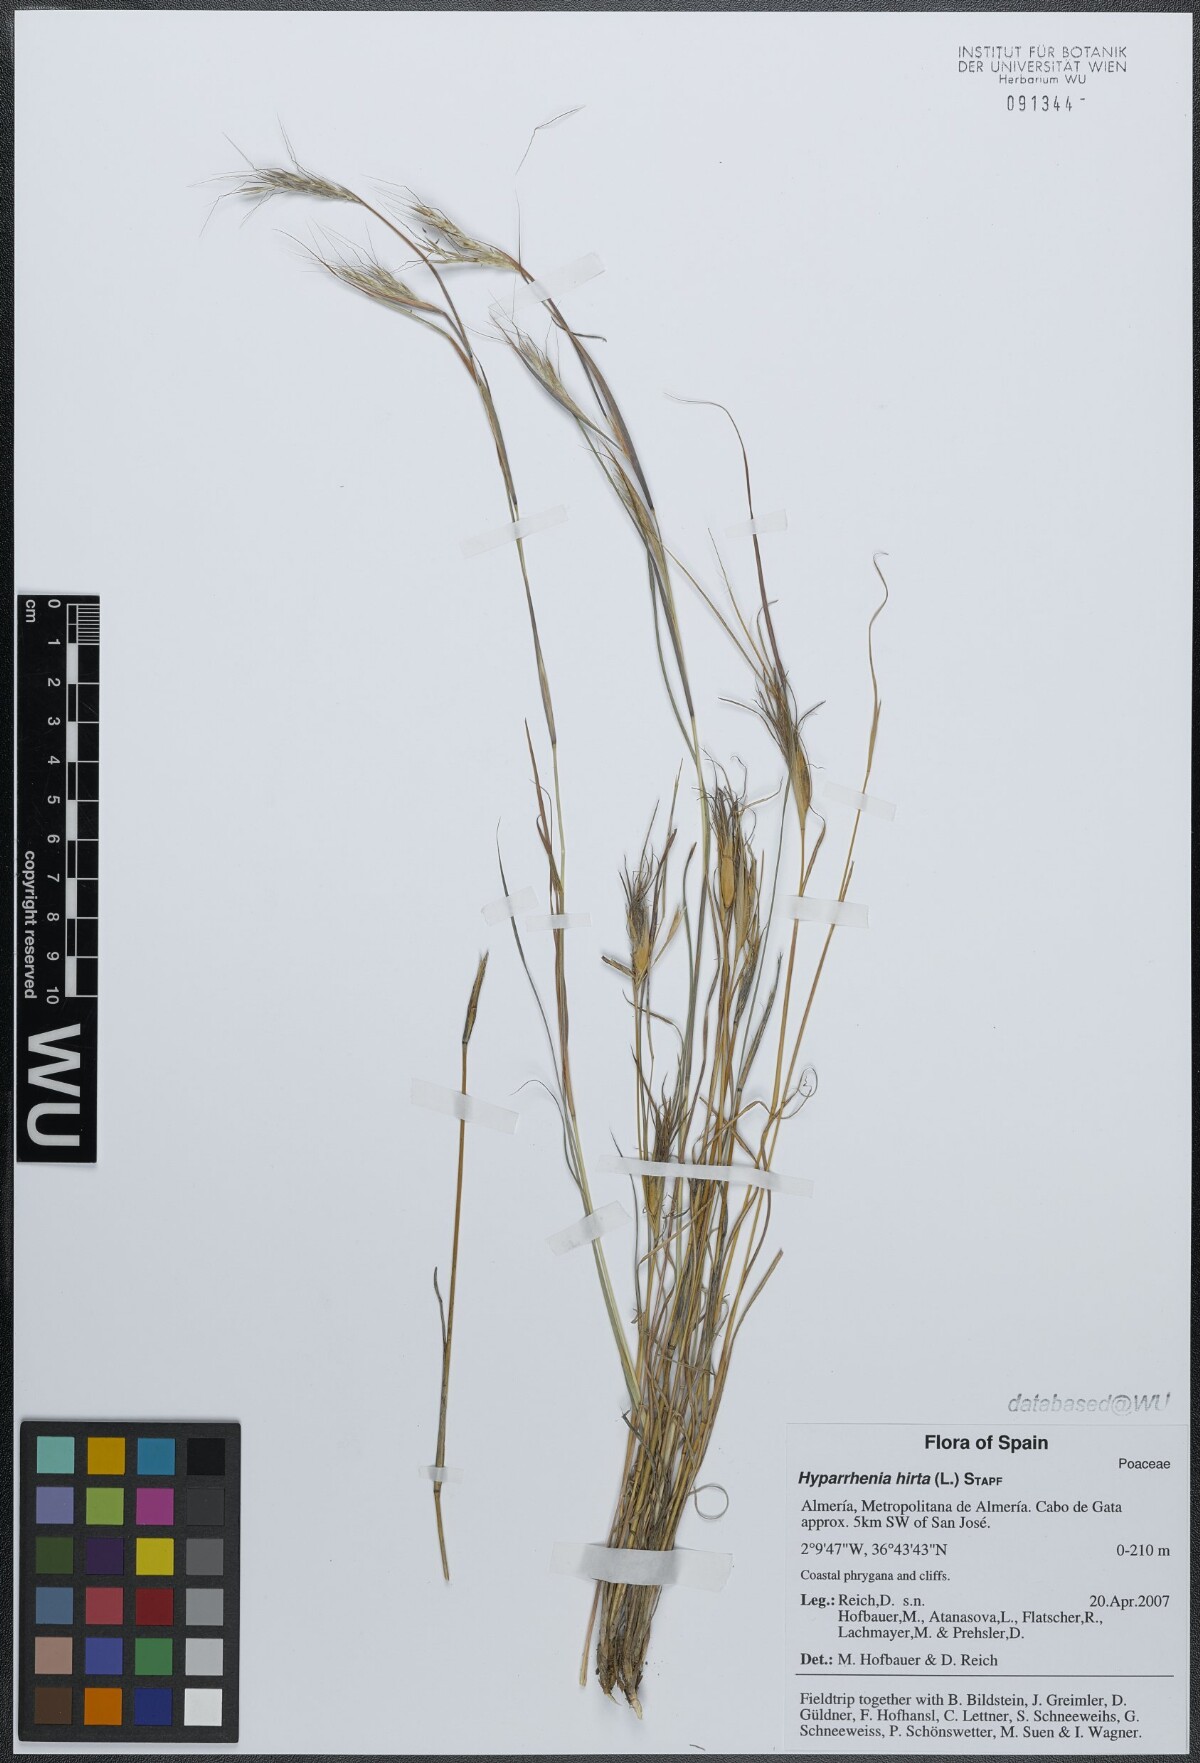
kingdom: Plantae
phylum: Tracheophyta
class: Liliopsida
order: Poales
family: Poaceae
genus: Hyparrhenia
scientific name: Hyparrhenia hirta
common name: Thatching grass
